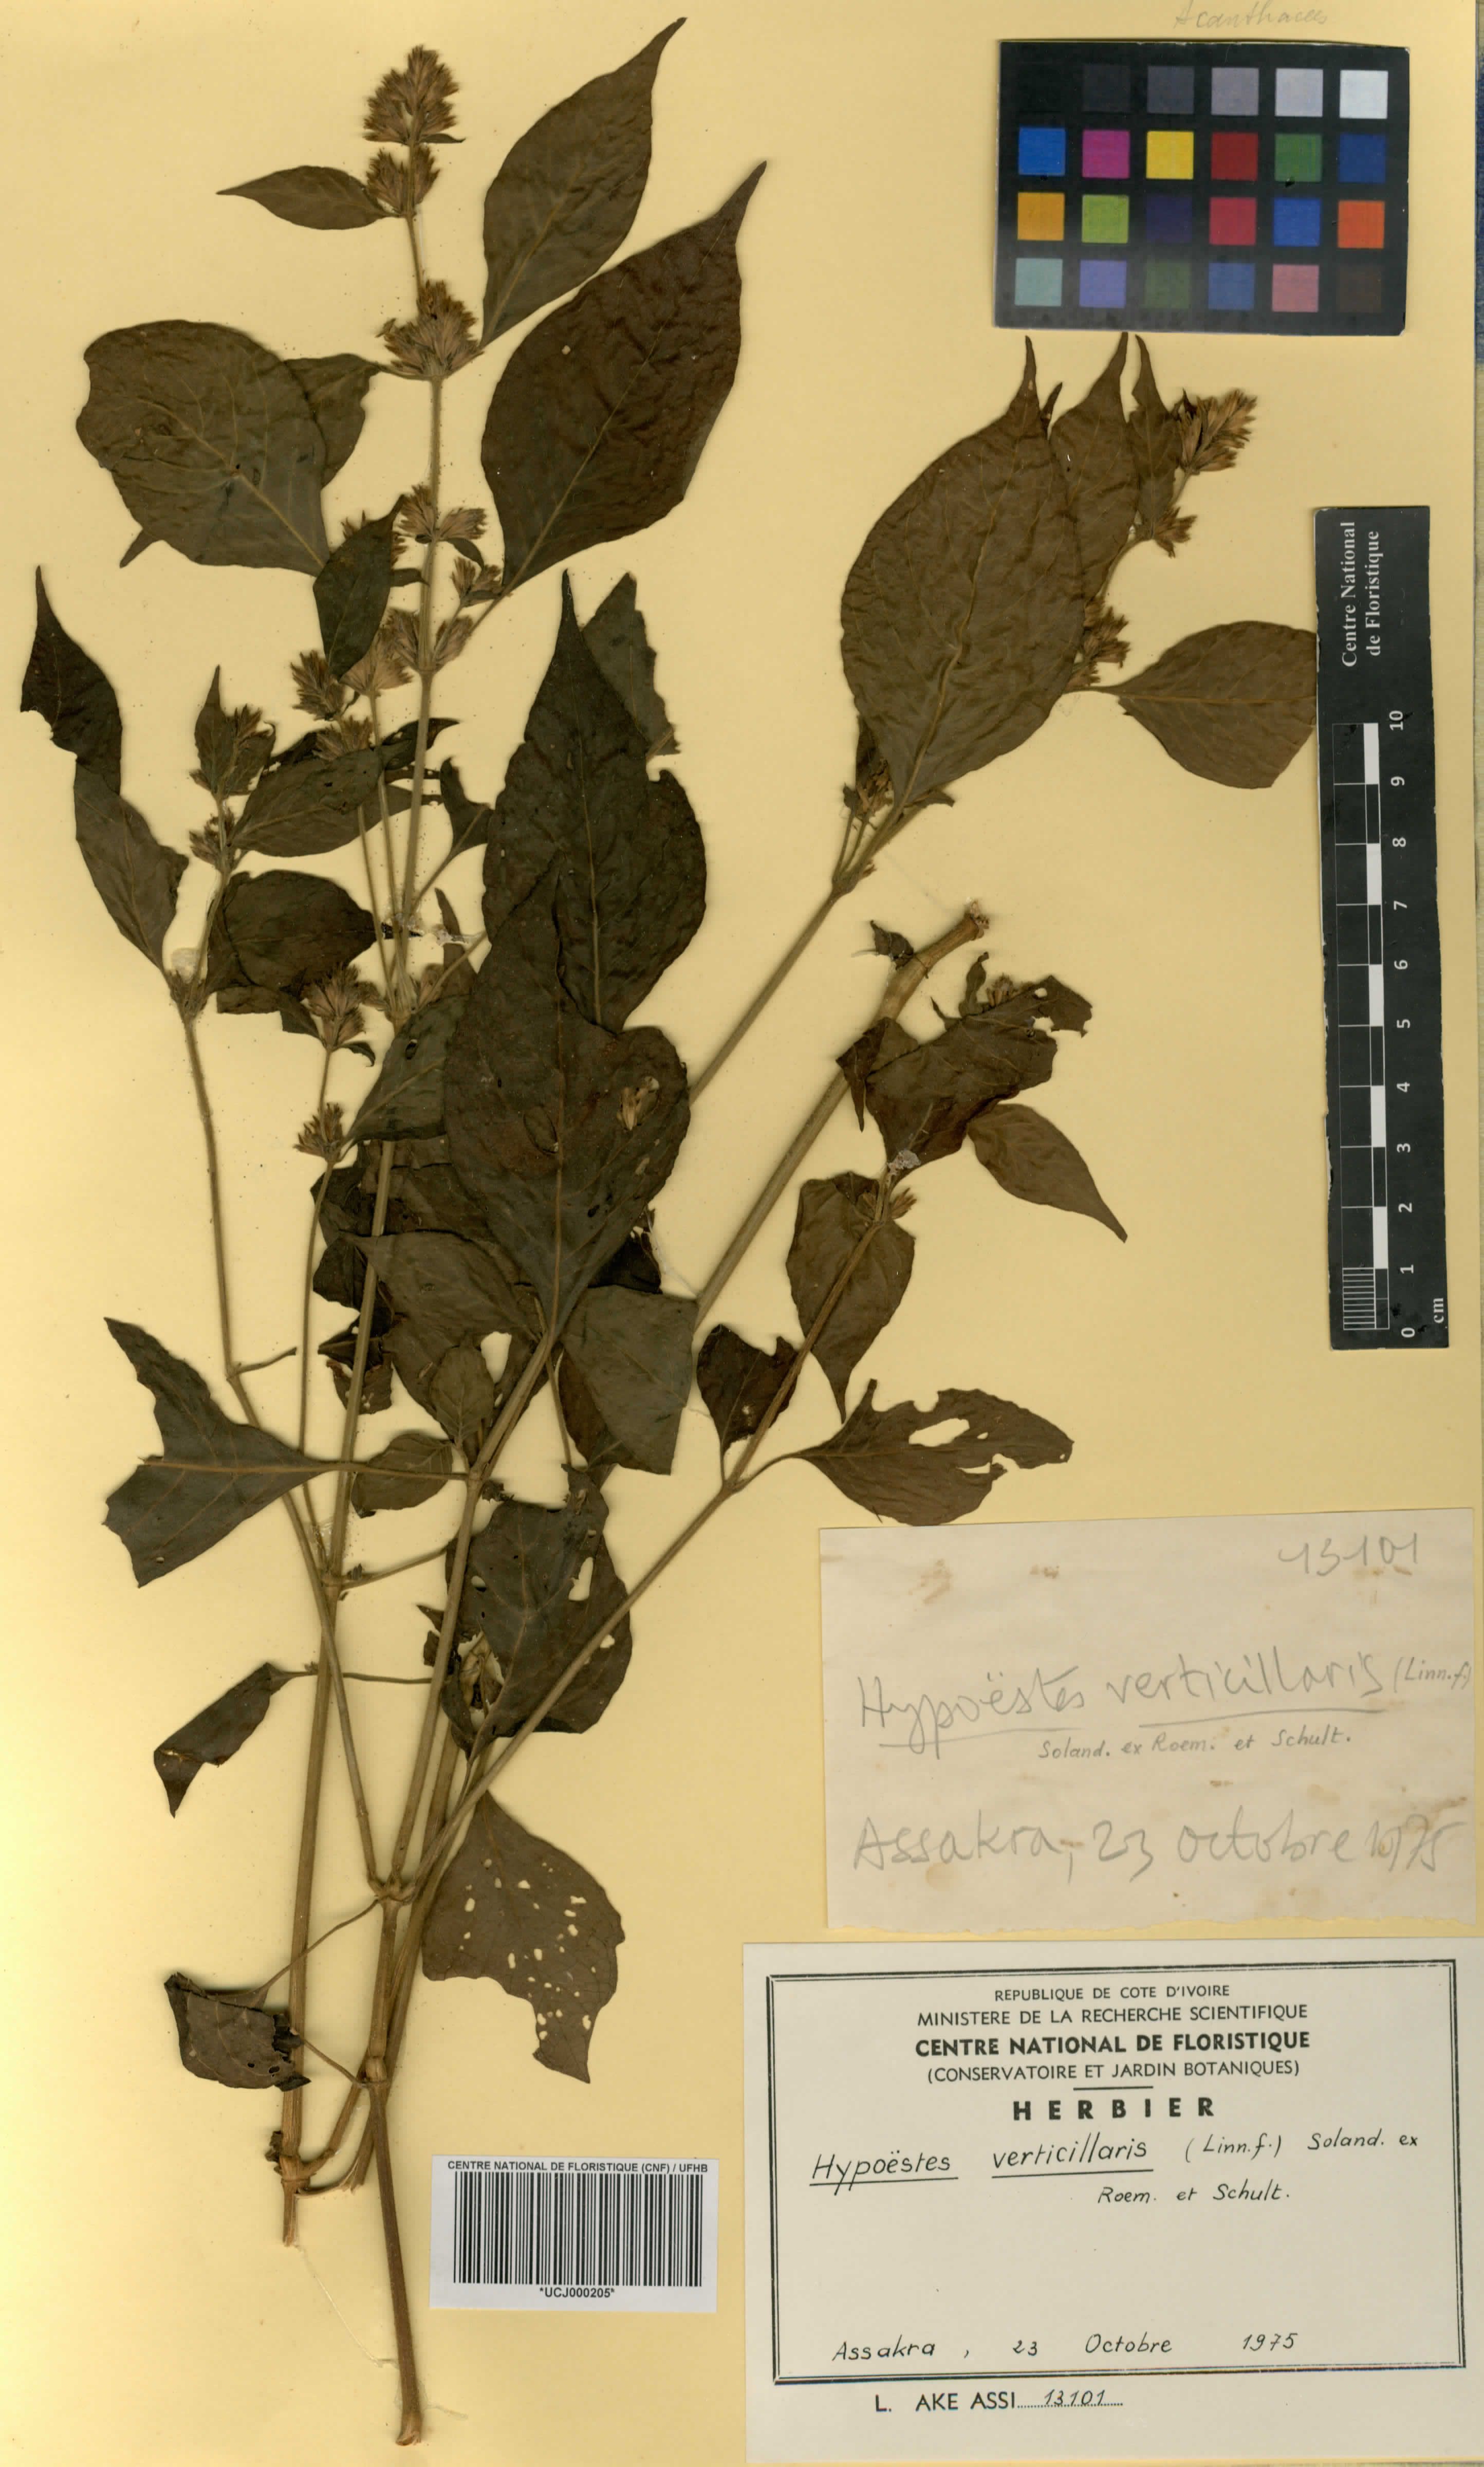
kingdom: Plantae
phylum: Tracheophyta
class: Magnoliopsida
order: Lamiales
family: Acanthaceae
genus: Hypoestes
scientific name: Hypoestes aristata
